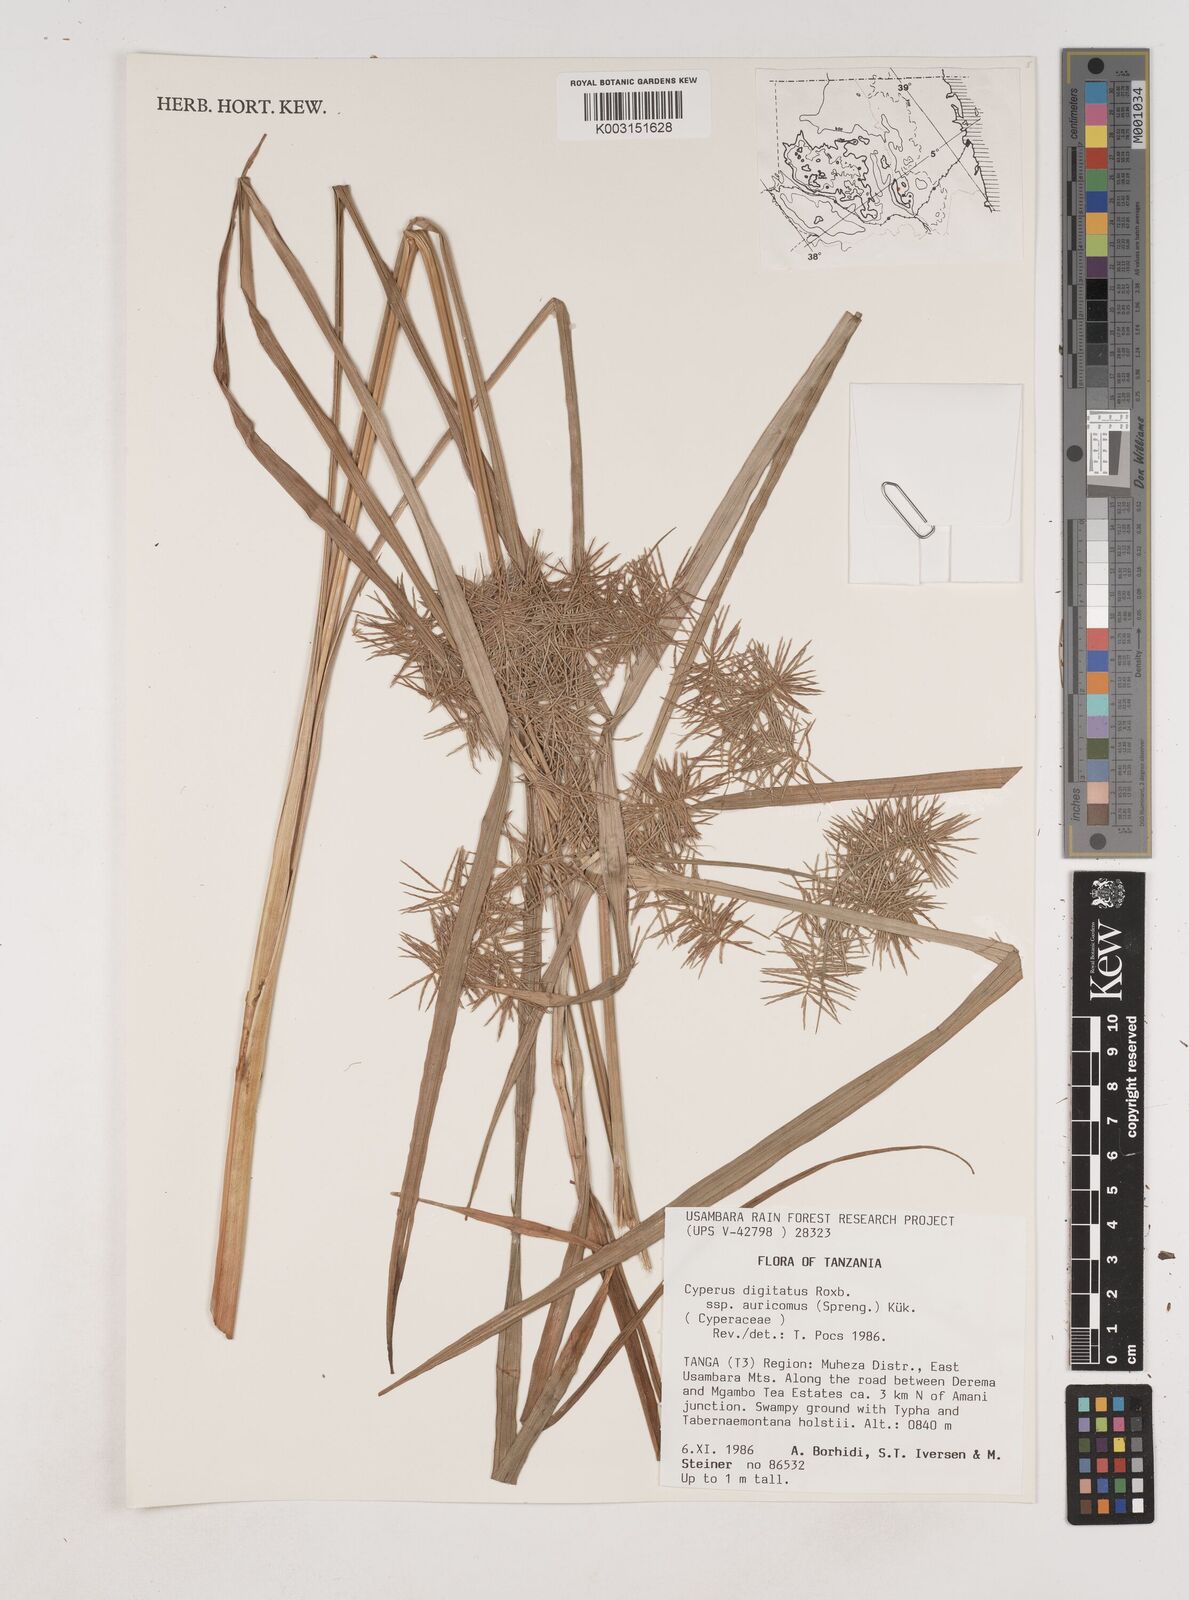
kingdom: Plantae
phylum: Tracheophyta
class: Liliopsida
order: Poales
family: Cyperaceae
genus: Cyperus
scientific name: Cyperus digitatus
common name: Finger flatsedge
